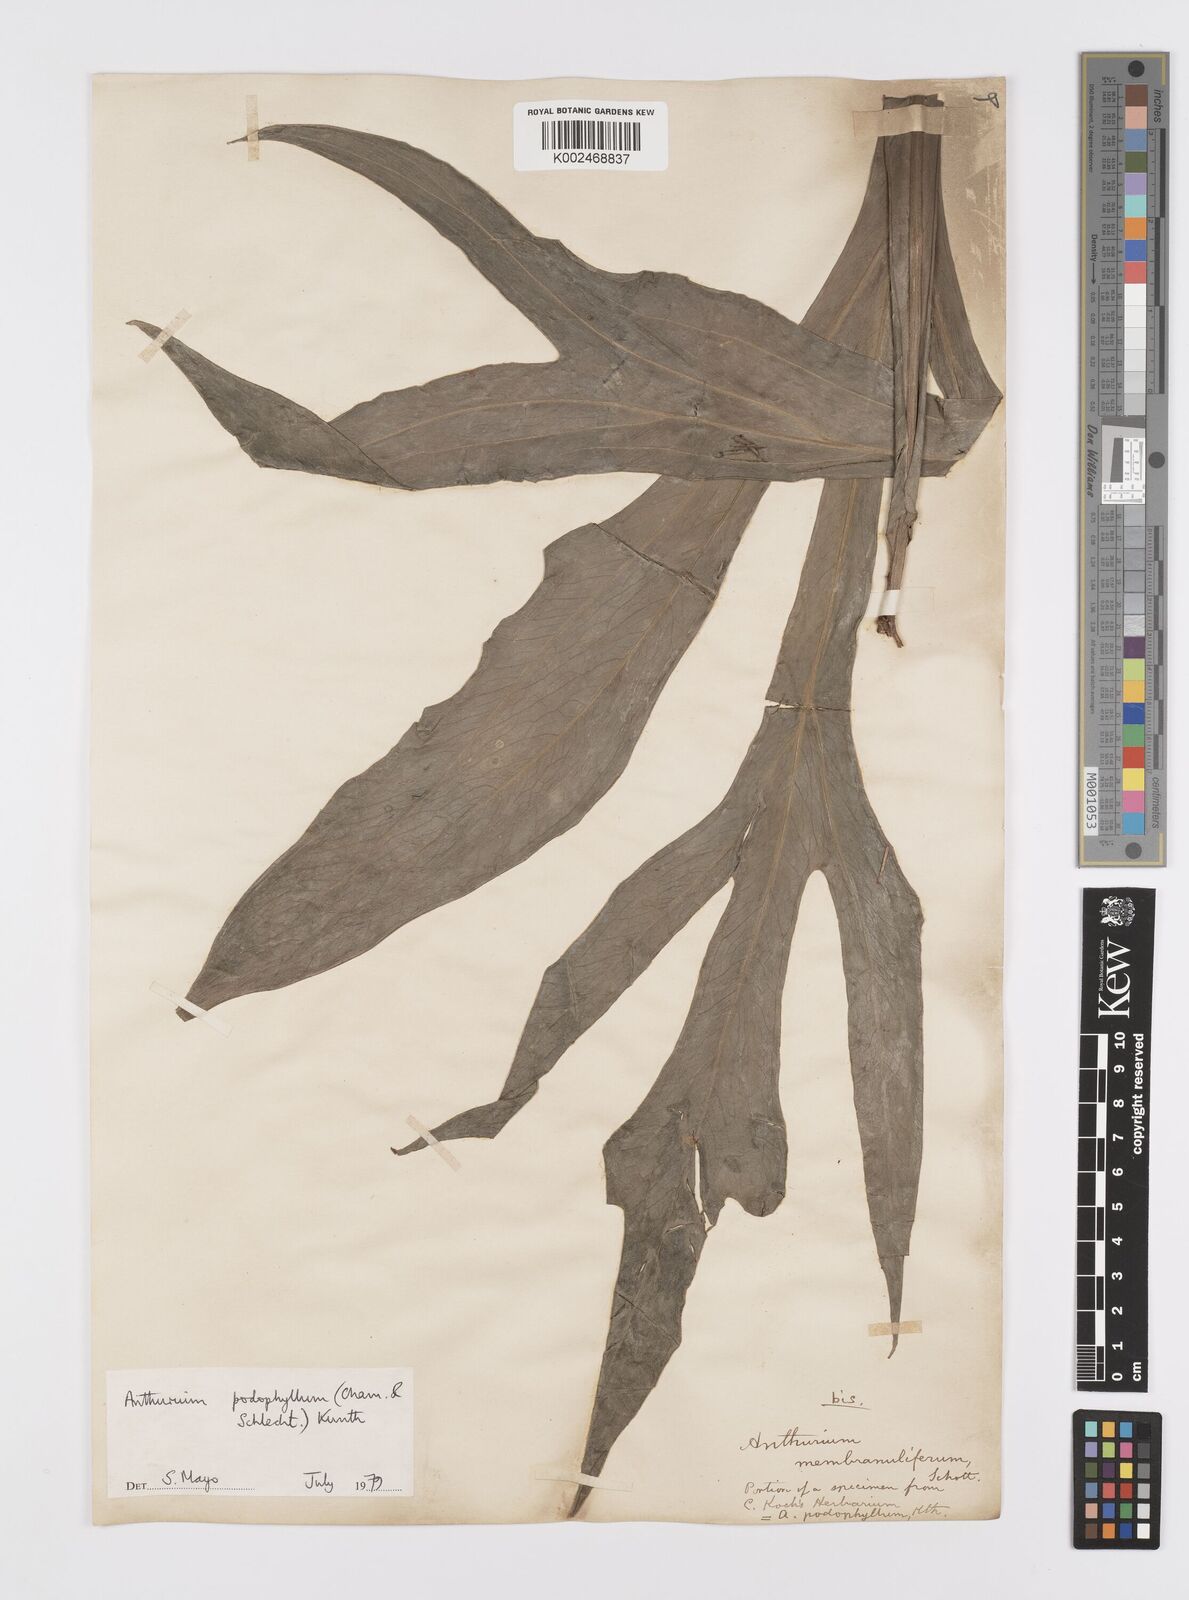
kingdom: Plantae
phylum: Tracheophyta
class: Liliopsida
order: Alismatales
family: Araceae
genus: Anthurium
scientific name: Anthurium podophyllum
